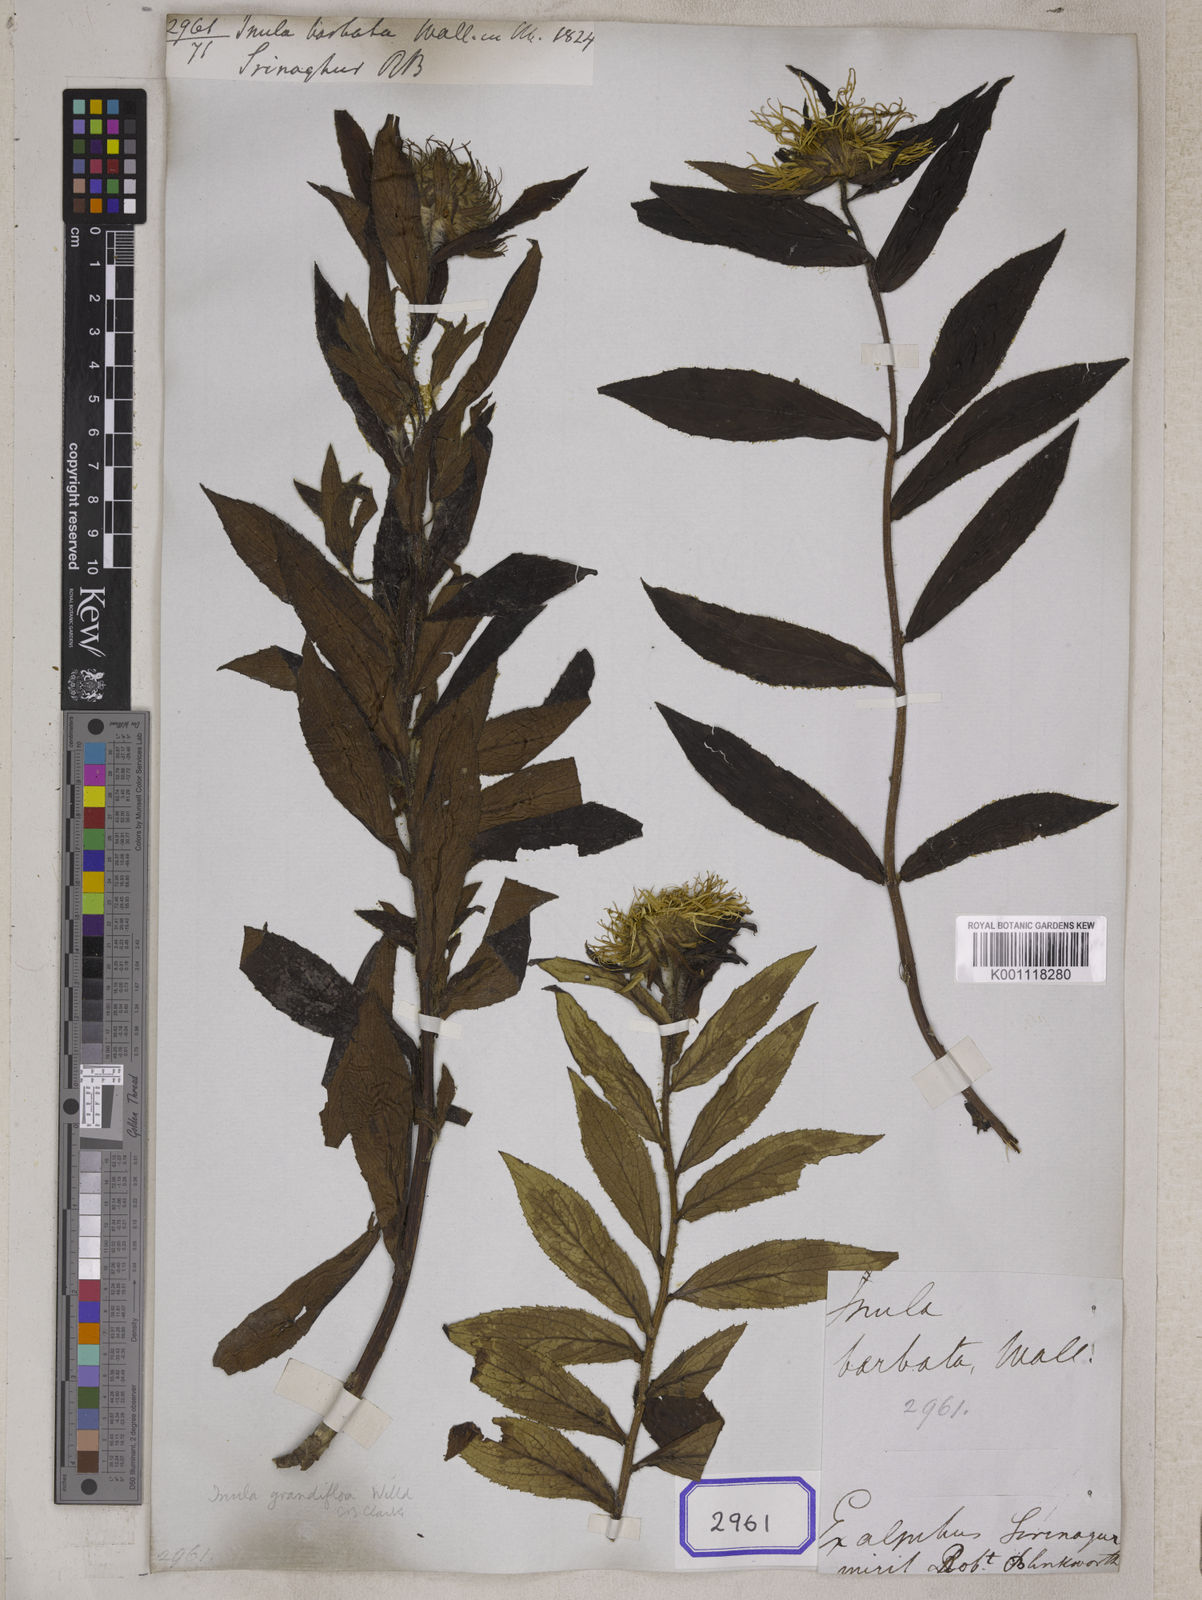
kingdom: Plantae
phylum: Tracheophyta
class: Magnoliopsida
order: Asterales
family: Asteraceae
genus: Inula
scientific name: Inula grandiflora
